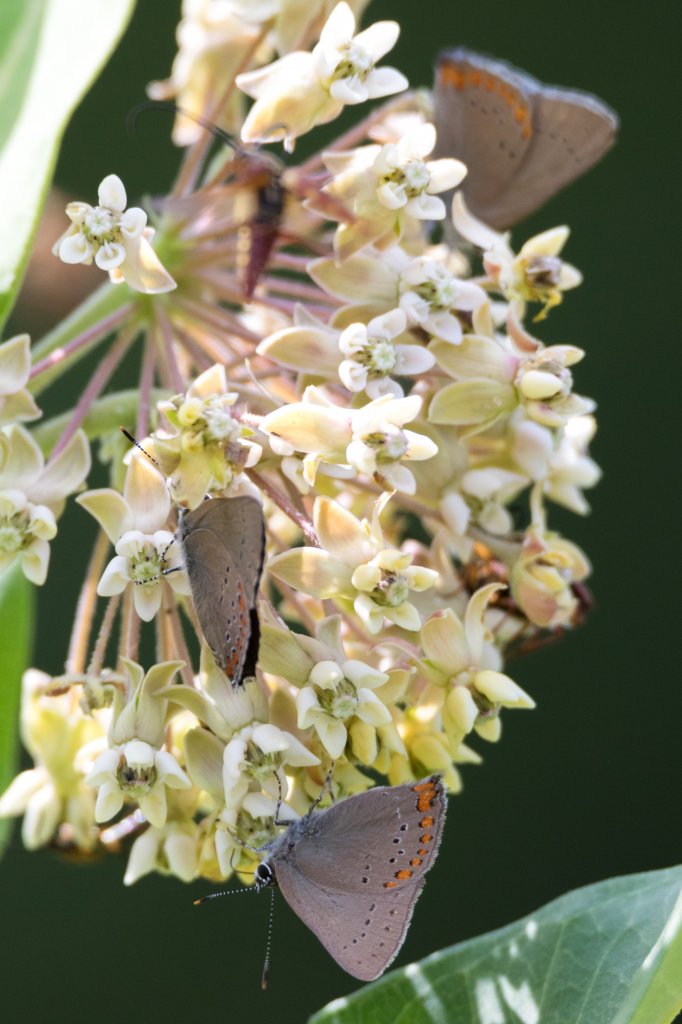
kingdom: Animalia
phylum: Arthropoda
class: Insecta
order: Lepidoptera
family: Lycaenidae
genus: Harkenclenus
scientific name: Harkenclenus titus
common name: Coral Hairstreak
